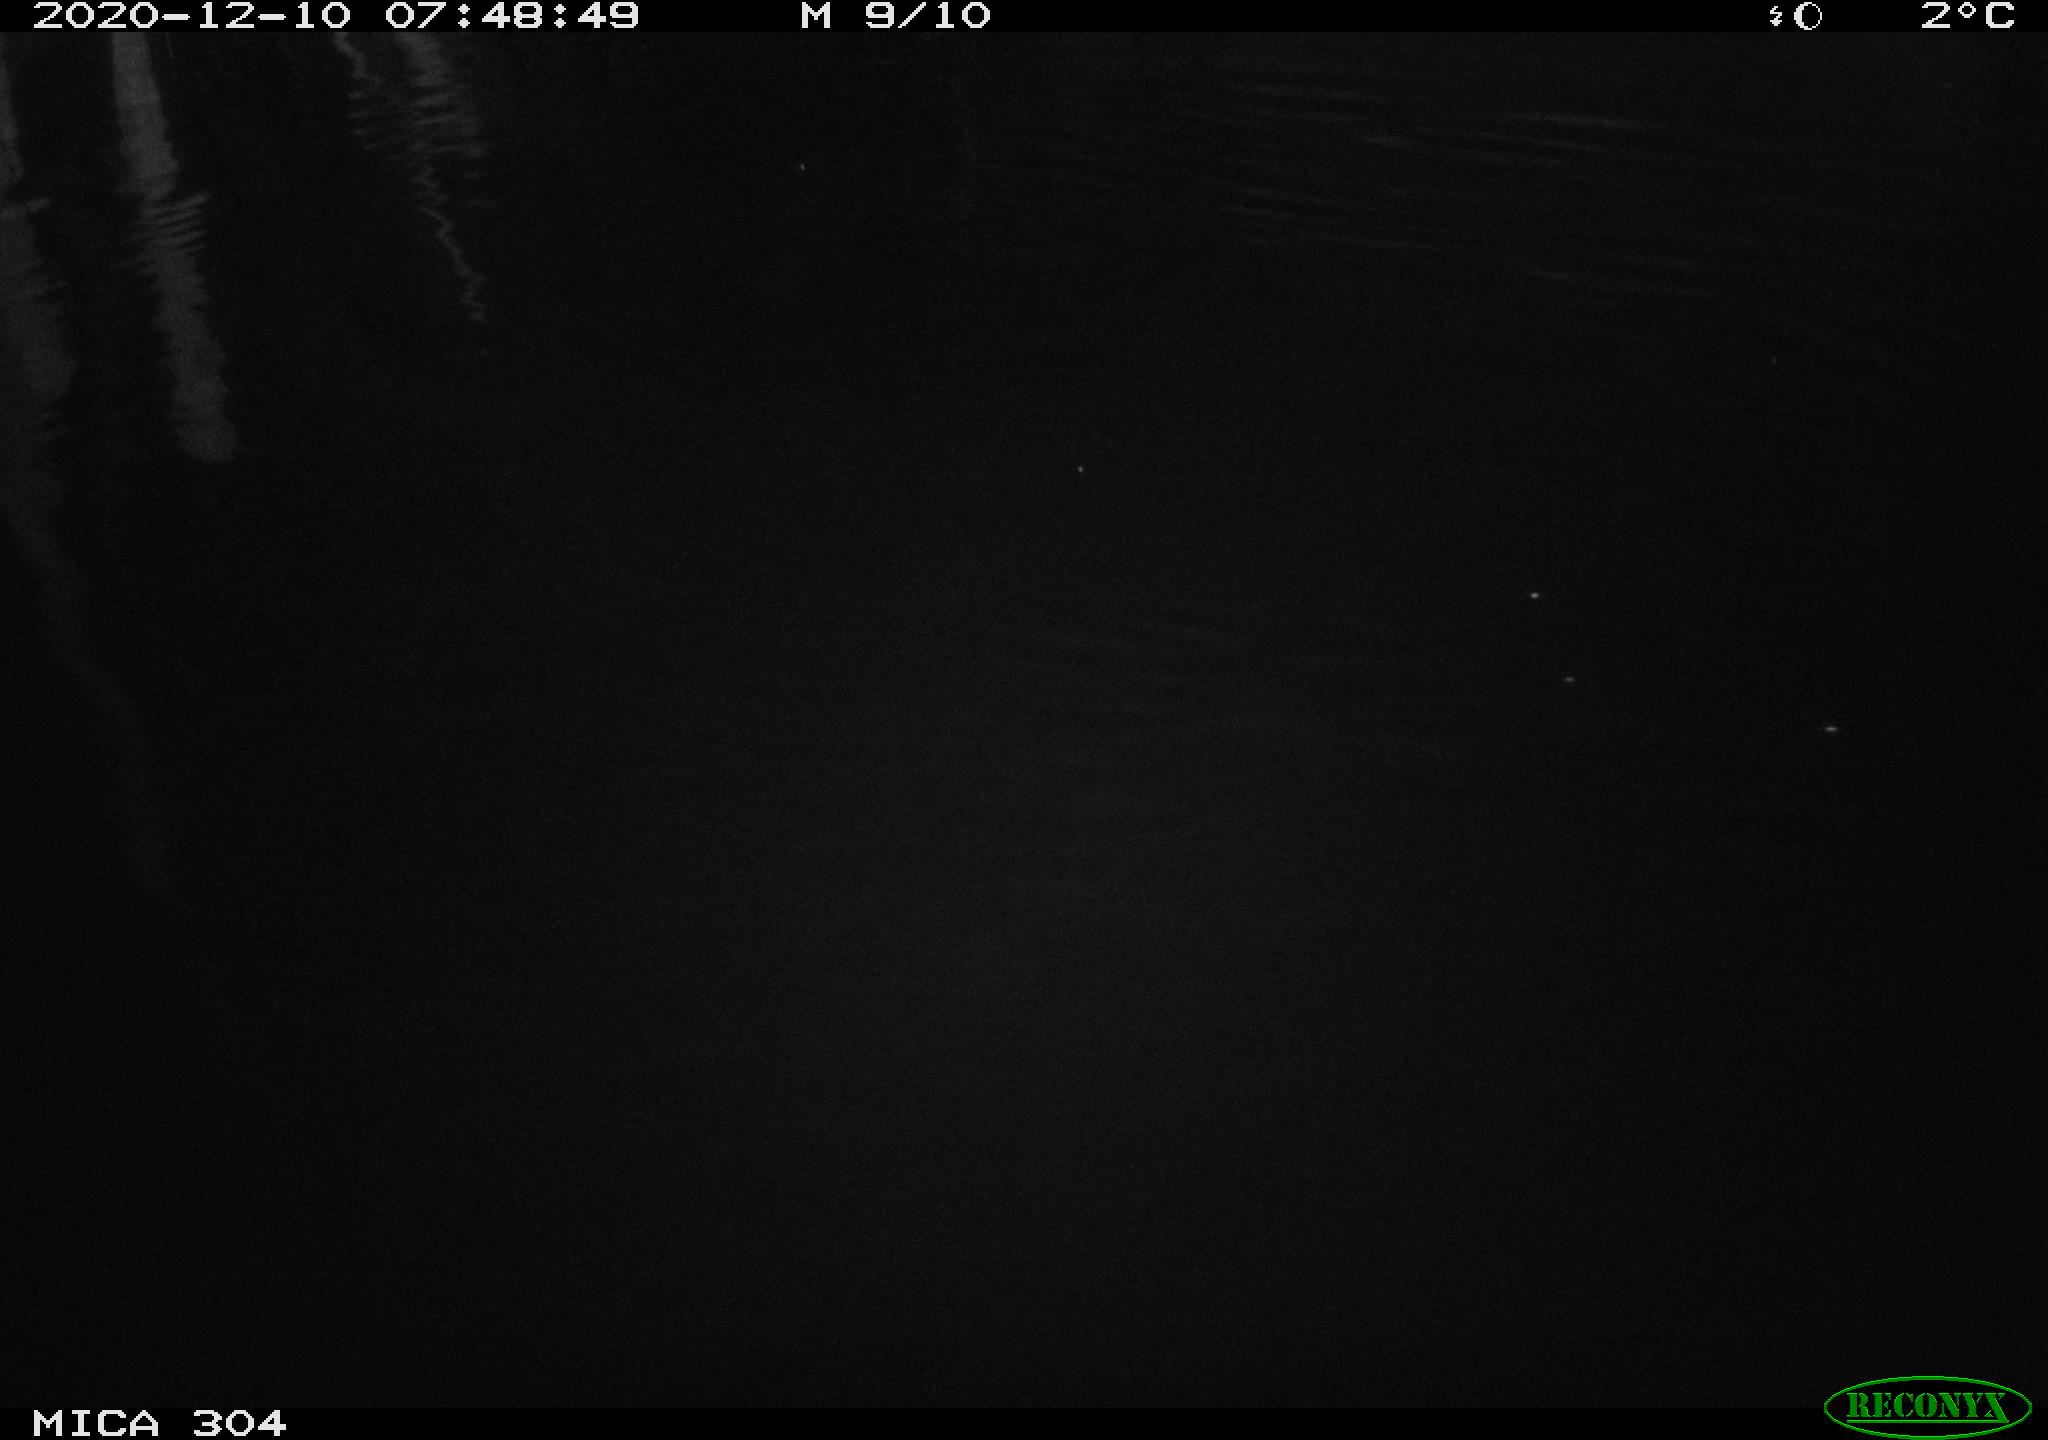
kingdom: Animalia
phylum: Chordata
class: Aves
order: Gruiformes
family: Rallidae
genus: Gallinula
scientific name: Gallinula chloropus
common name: Common moorhen
